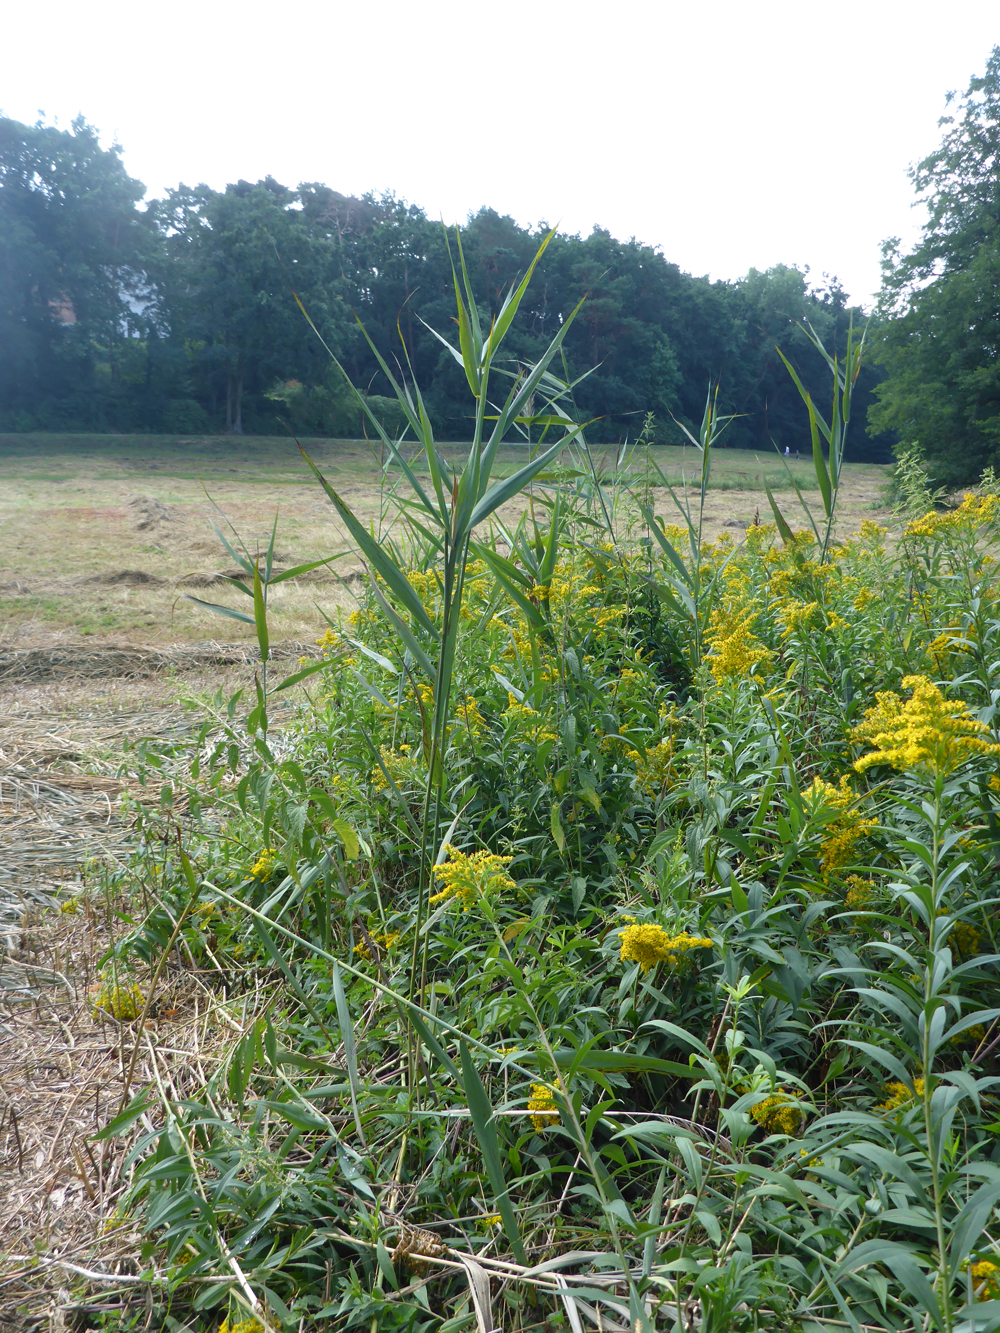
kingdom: Plantae
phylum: Tracheophyta
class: Liliopsida
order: Poales
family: Poaceae
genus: Phragmites
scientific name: Phragmites australis
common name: Common reed
